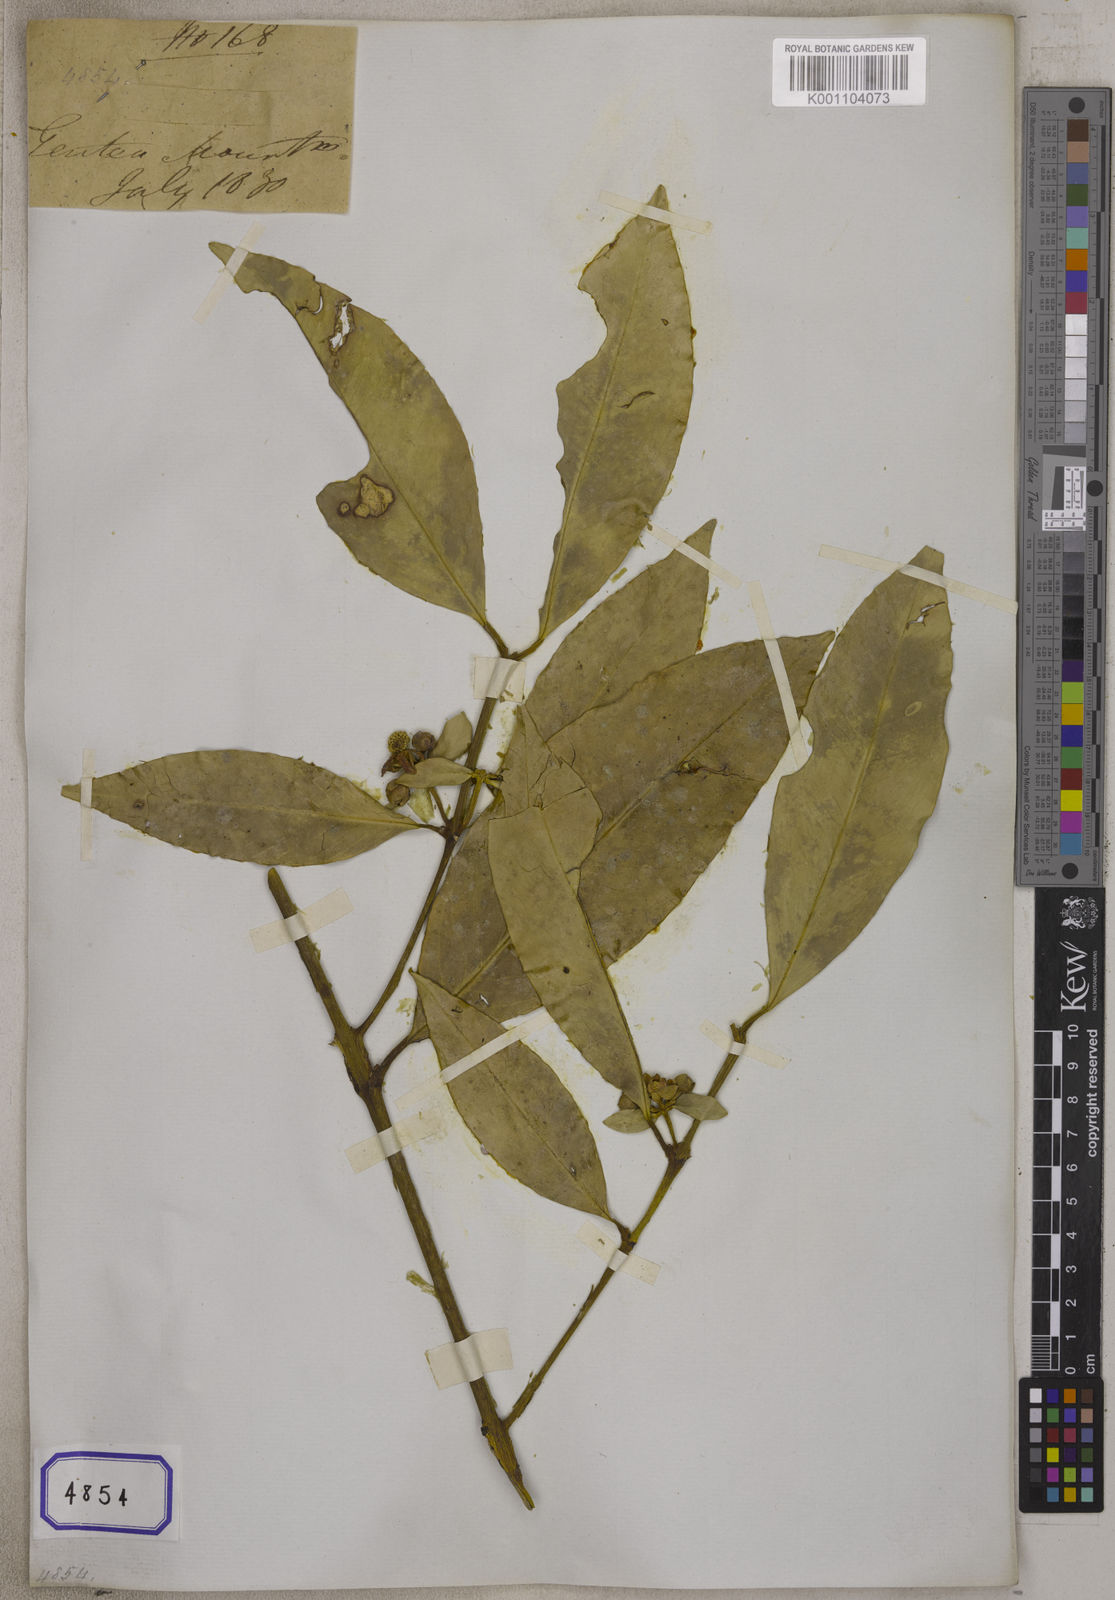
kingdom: Plantae
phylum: Tracheophyta
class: Magnoliopsida
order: Malpighiales
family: Clusiaceae
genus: Garcinia
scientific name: Garcinia
